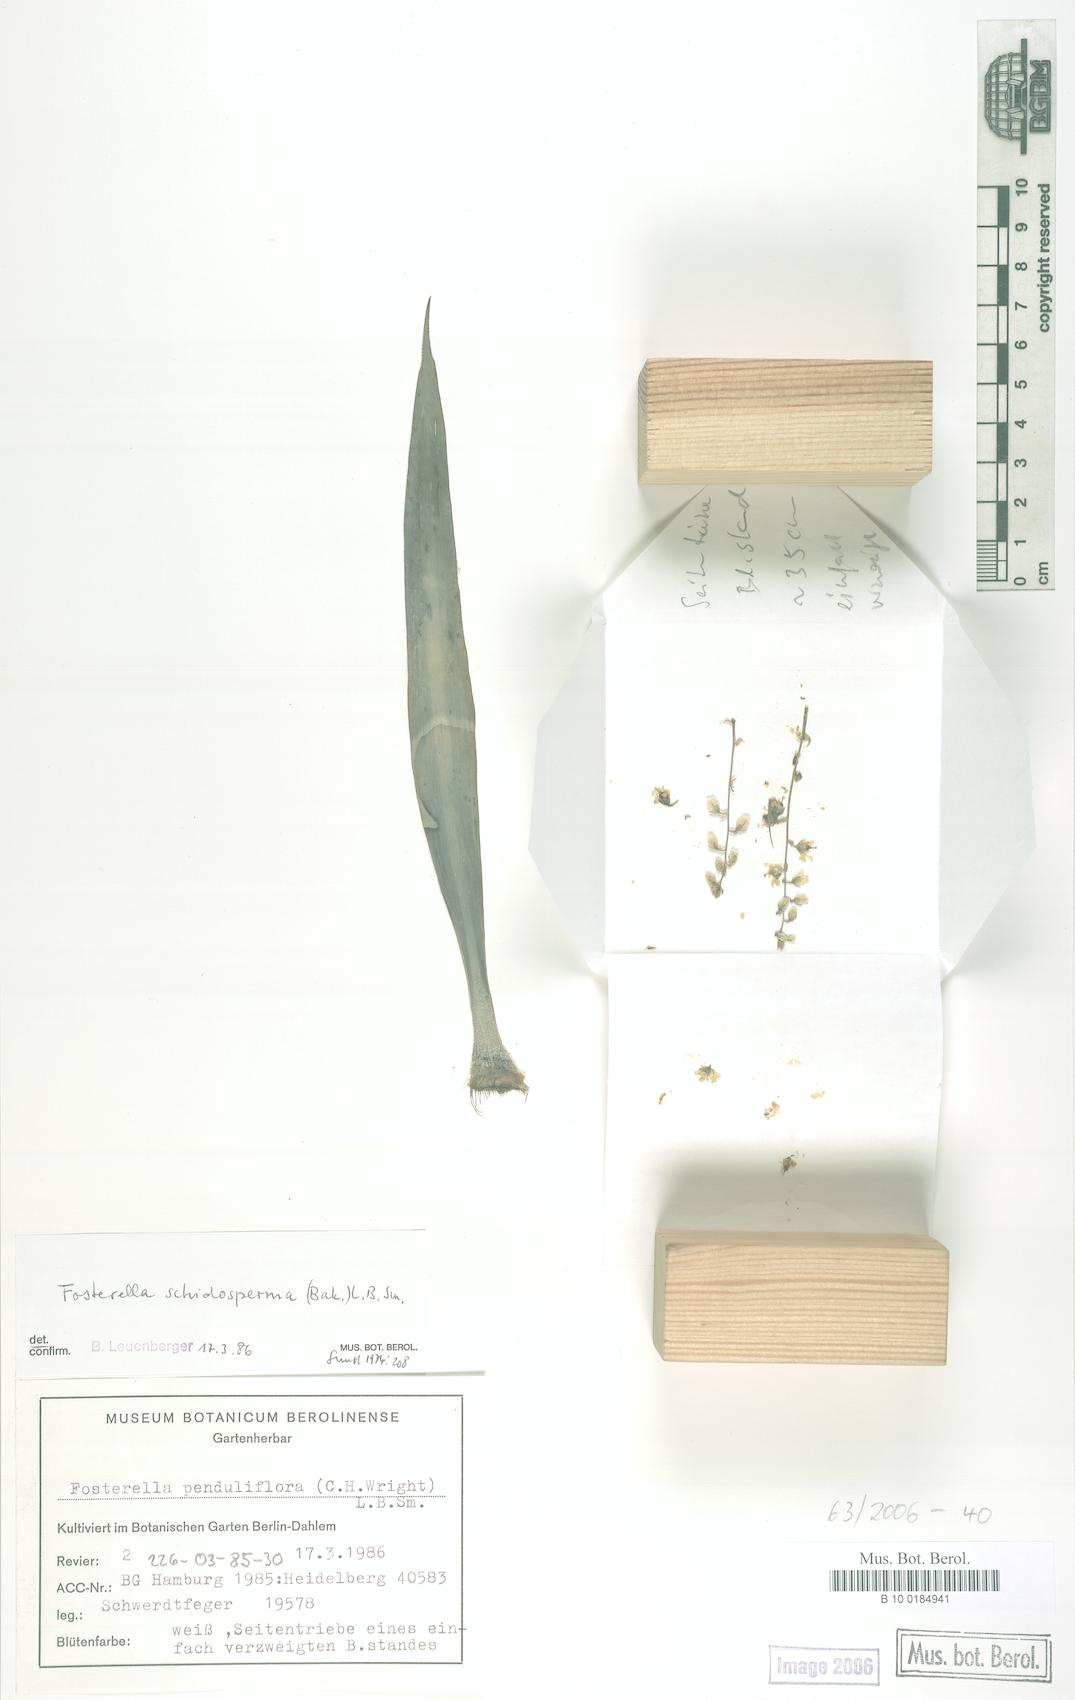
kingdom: Plantae
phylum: Tracheophyta
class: Liliopsida
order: Poales
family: Bromeliaceae
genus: Fosterella
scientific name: Fosterella schidosperma
